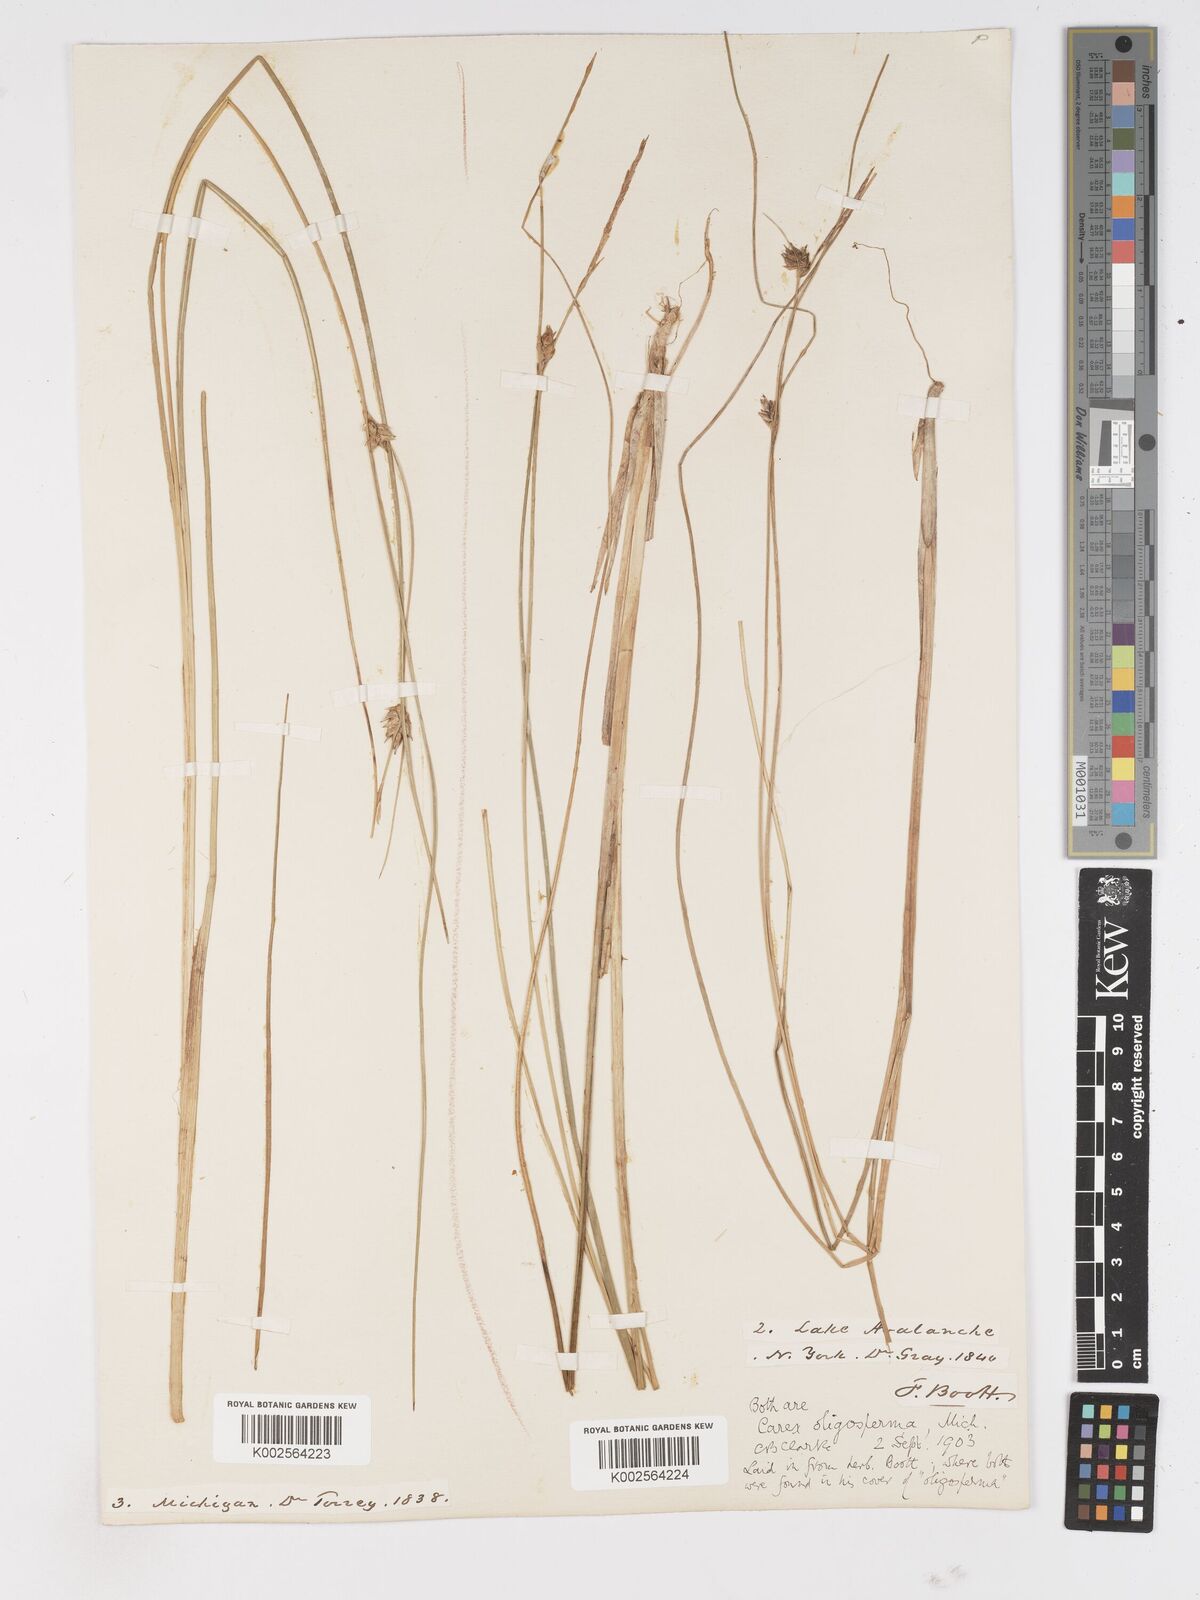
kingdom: Plantae
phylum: Tracheophyta
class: Liliopsida
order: Poales
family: Cyperaceae
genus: Carex
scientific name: Carex oligosperma
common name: Few-seed sedge
